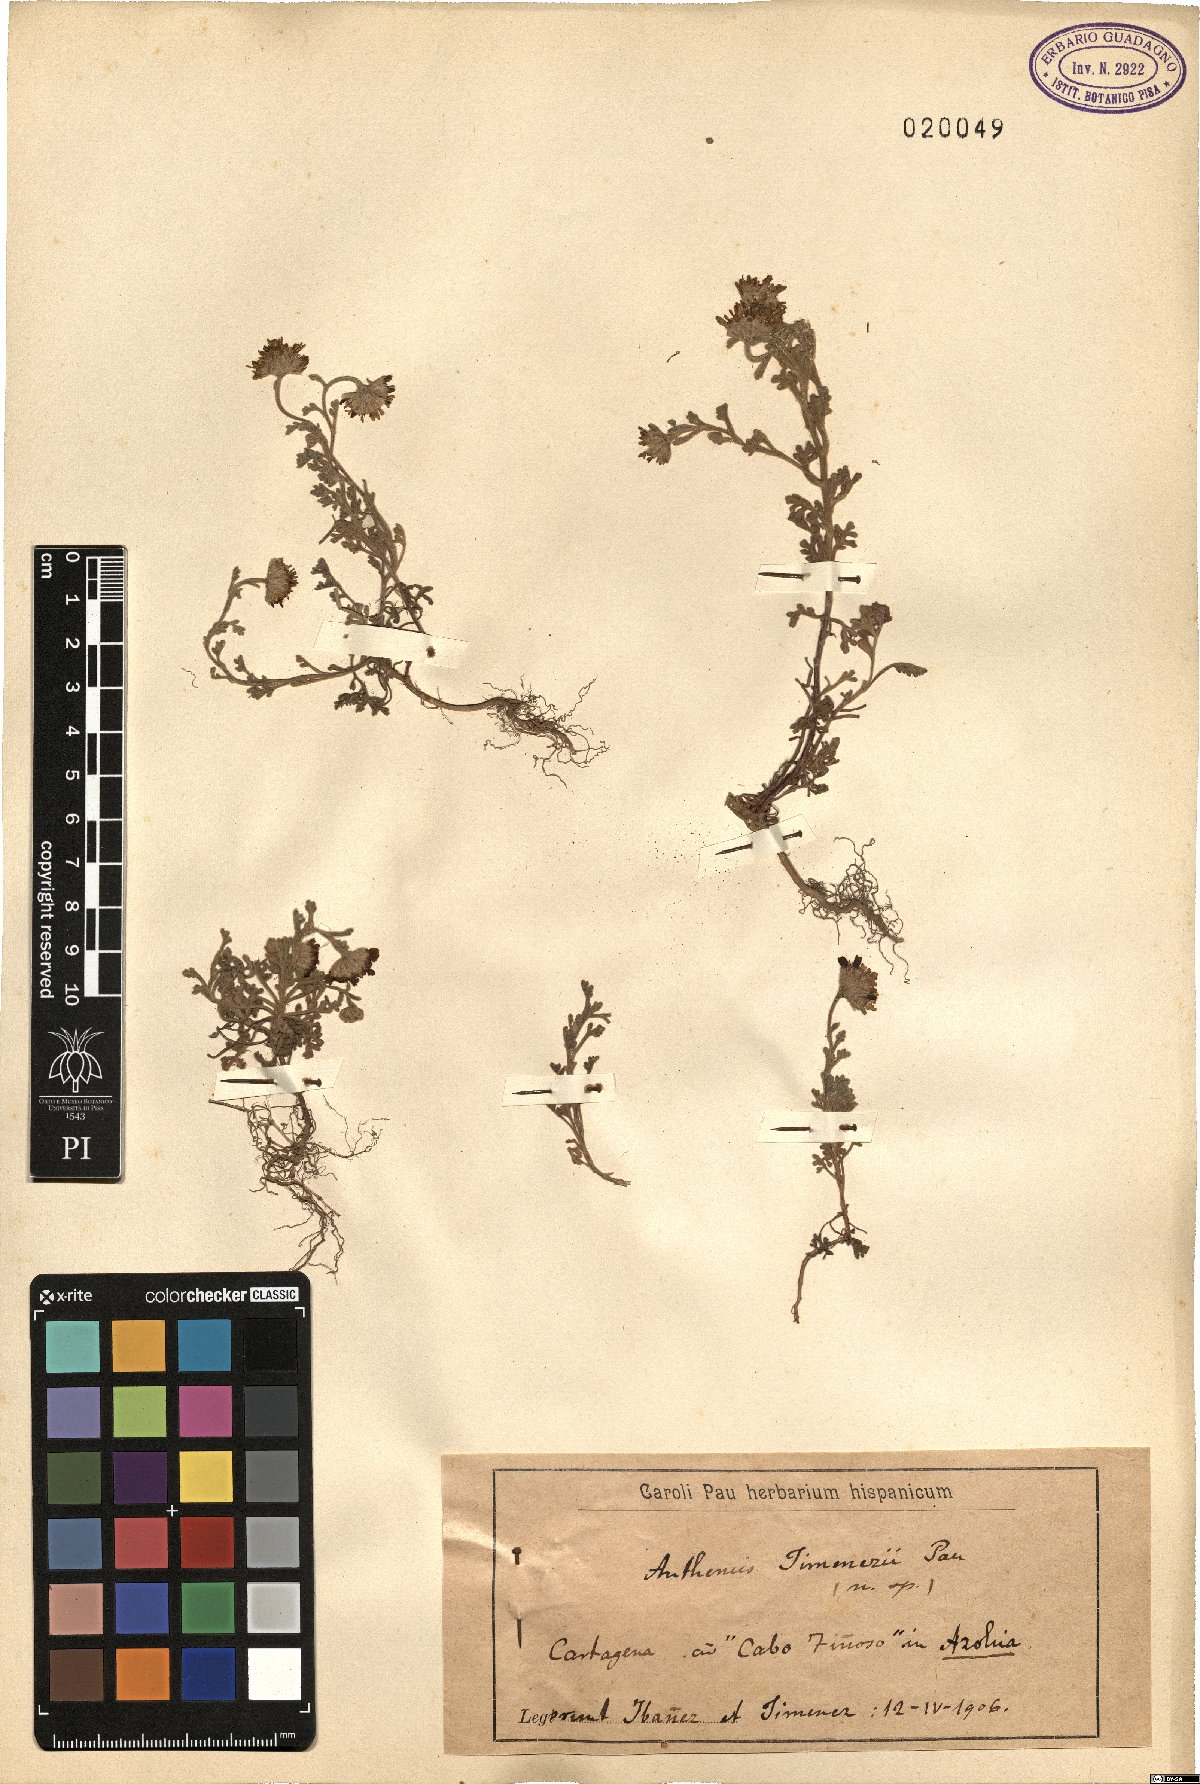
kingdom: Plantae
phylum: Tracheophyta
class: Magnoliopsida
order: Asterales
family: Asteraceae
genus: Anthemis
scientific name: Anthemis chrysantha
